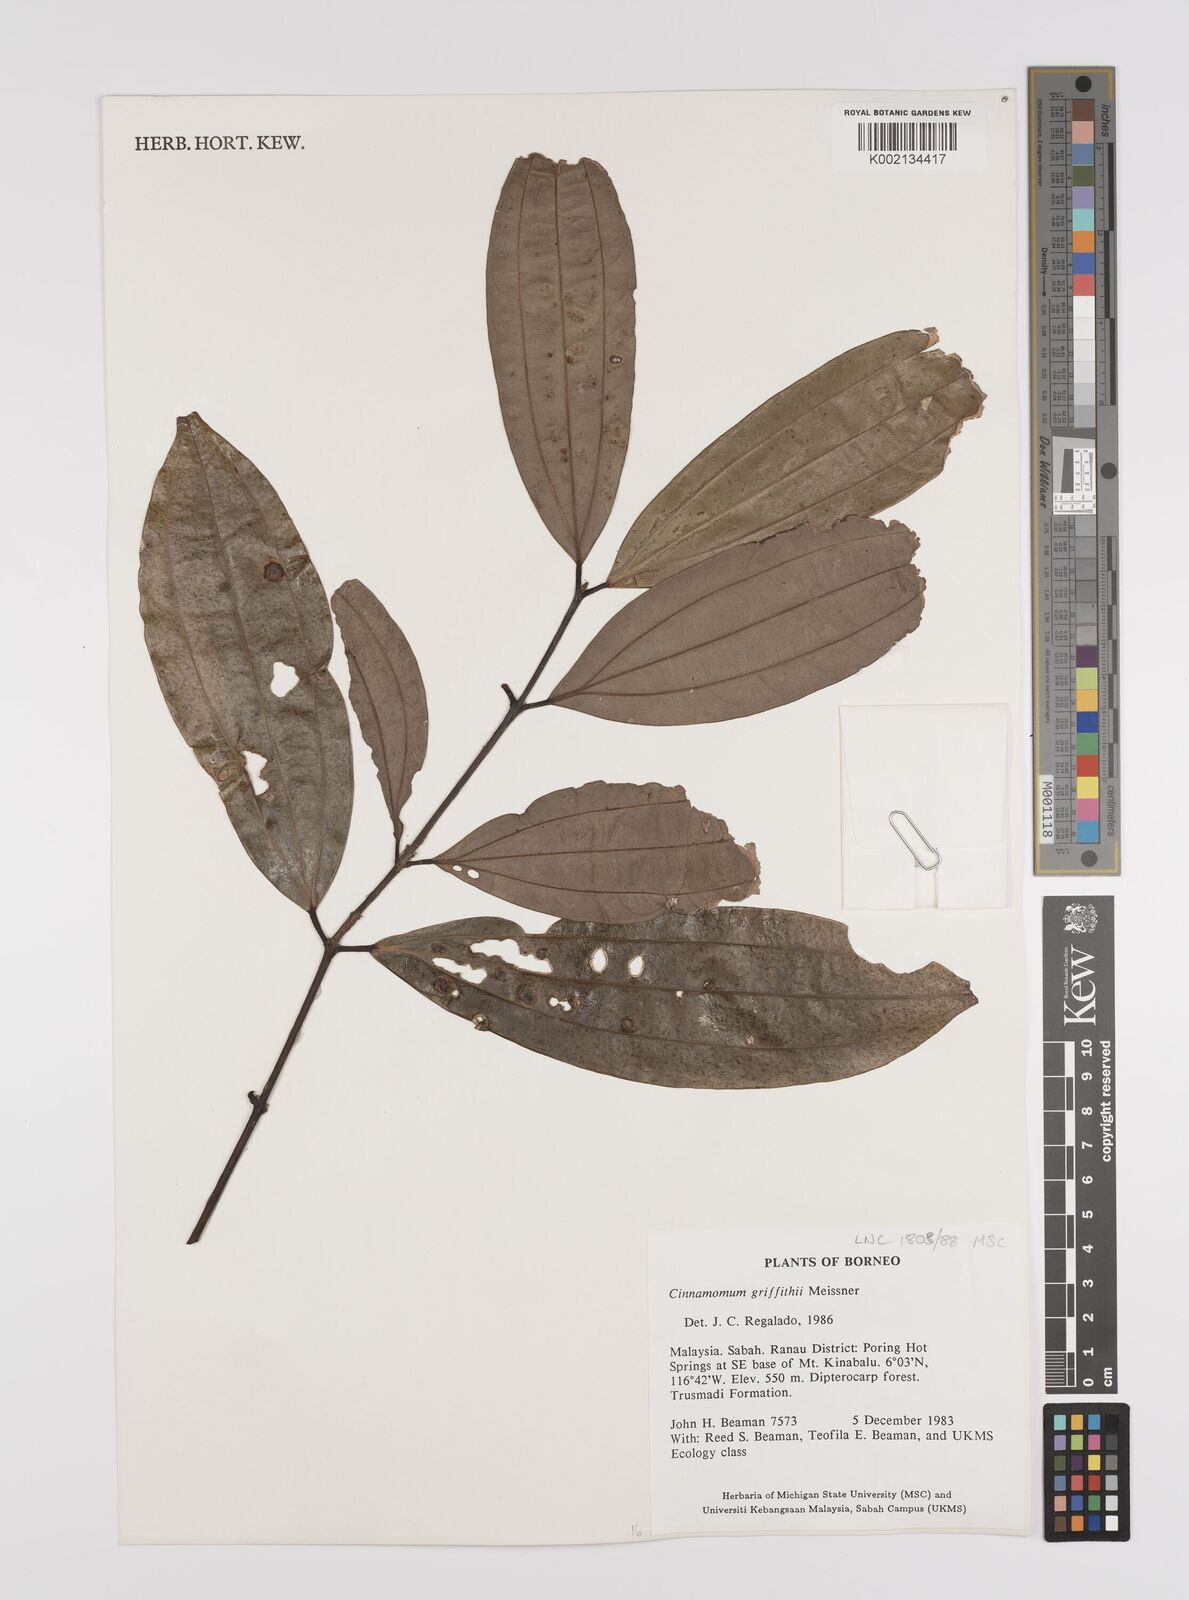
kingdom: Plantae
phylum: Tracheophyta
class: Magnoliopsida
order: Laurales
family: Lauraceae
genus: Cinnamomum
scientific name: Cinnamomum iners
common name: Wild cinnamon
